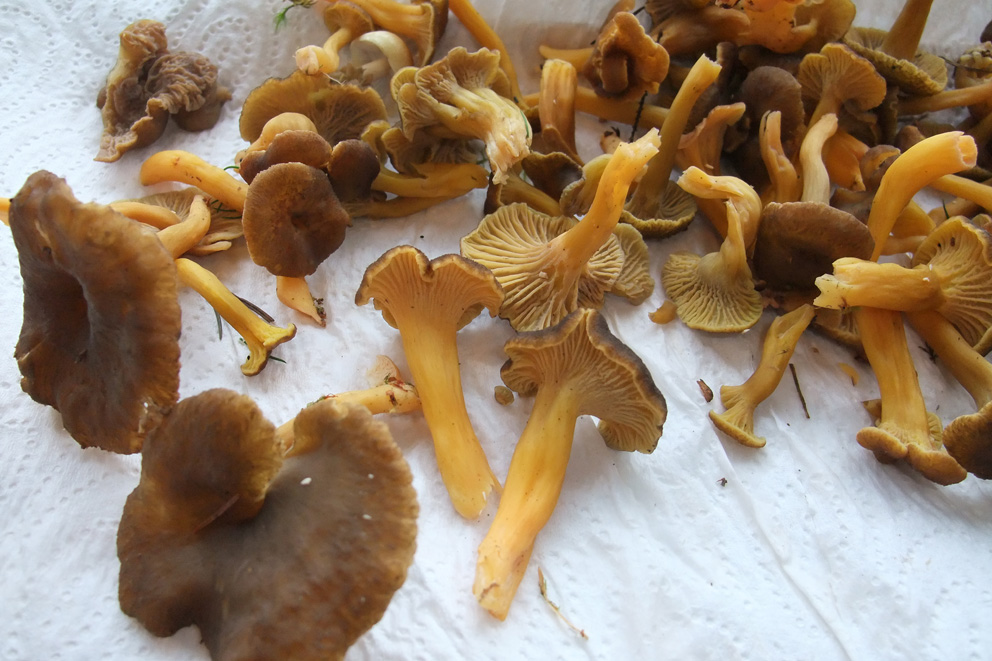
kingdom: Fungi
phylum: Basidiomycota
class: Agaricomycetes
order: Cantharellales
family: Hydnaceae
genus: Craterellus
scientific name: Craterellus tubaeformis
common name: tragt-kantarel
